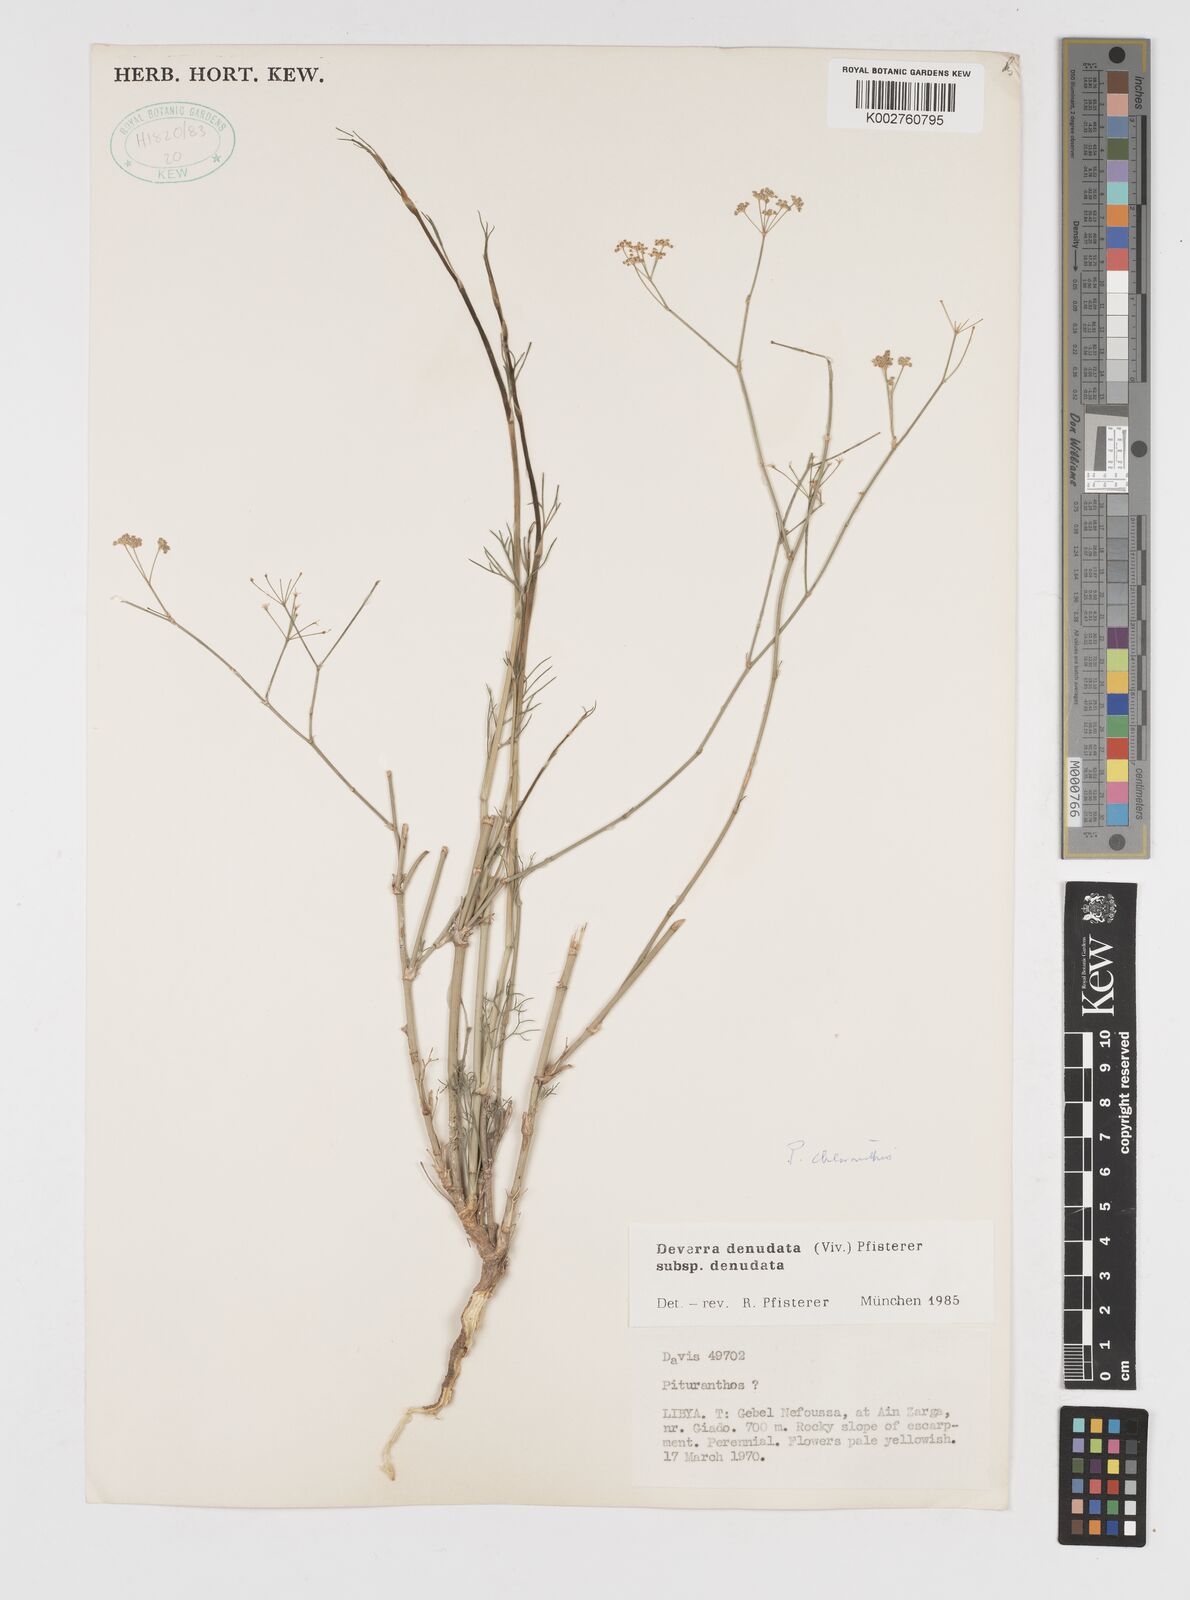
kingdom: Plantae
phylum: Tracheophyta
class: Magnoliopsida
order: Apiales
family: Apiaceae
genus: Deverra
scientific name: Deverra denudata
